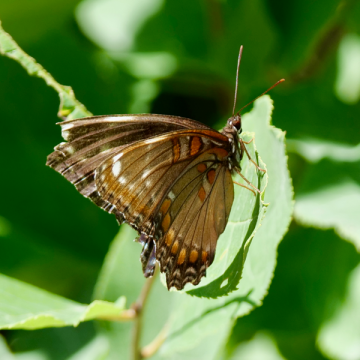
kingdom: Animalia
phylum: Arthropoda
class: Insecta
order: Lepidoptera
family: Nymphalidae
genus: Limenitis
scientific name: Limenitis arthemis
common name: Red-spotted Admiral
